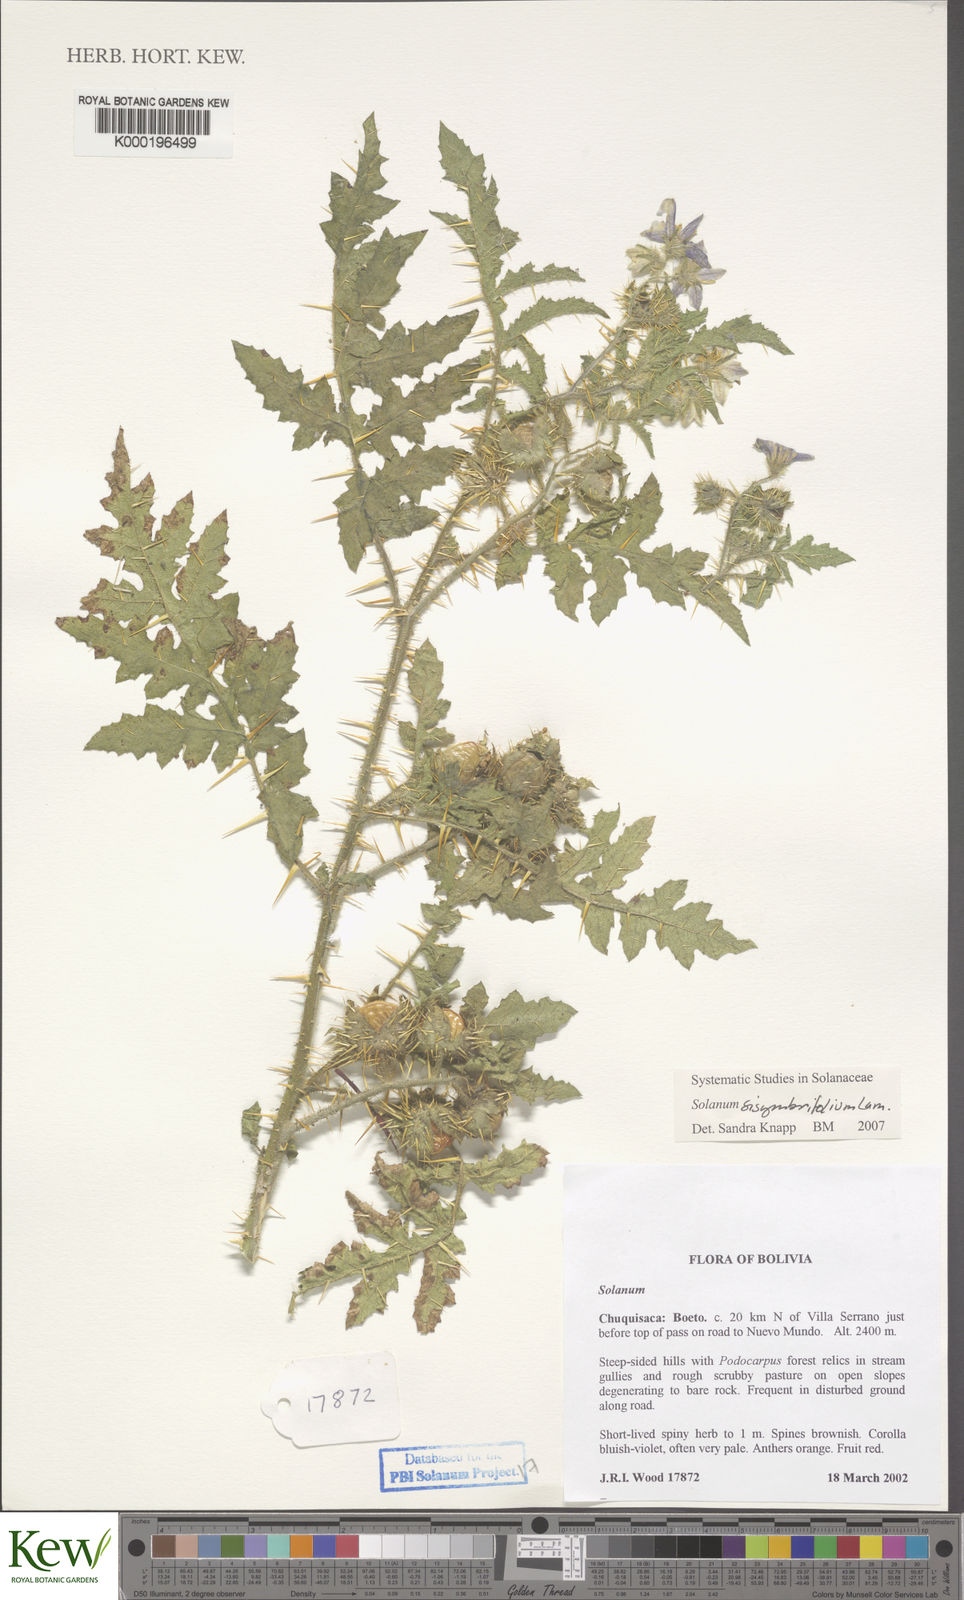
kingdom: Plantae
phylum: Tracheophyta
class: Magnoliopsida
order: Solanales
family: Solanaceae
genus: Solanum
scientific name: Solanum sisymbriifolium
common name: Red buffalo-bur
